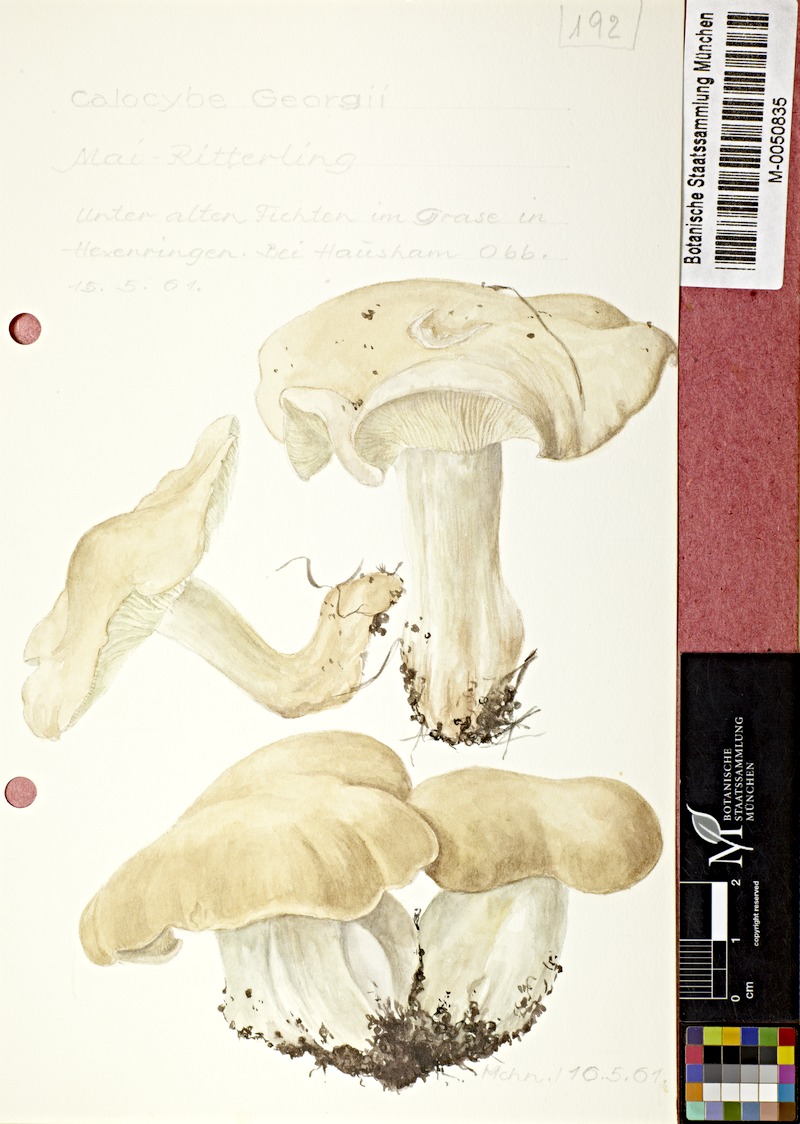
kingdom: Fungi
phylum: Basidiomycota
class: Agaricomycetes
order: Agaricales
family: Lyophyllaceae
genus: Calocybe
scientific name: Calocybe gambosa
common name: St. george's mushroom
